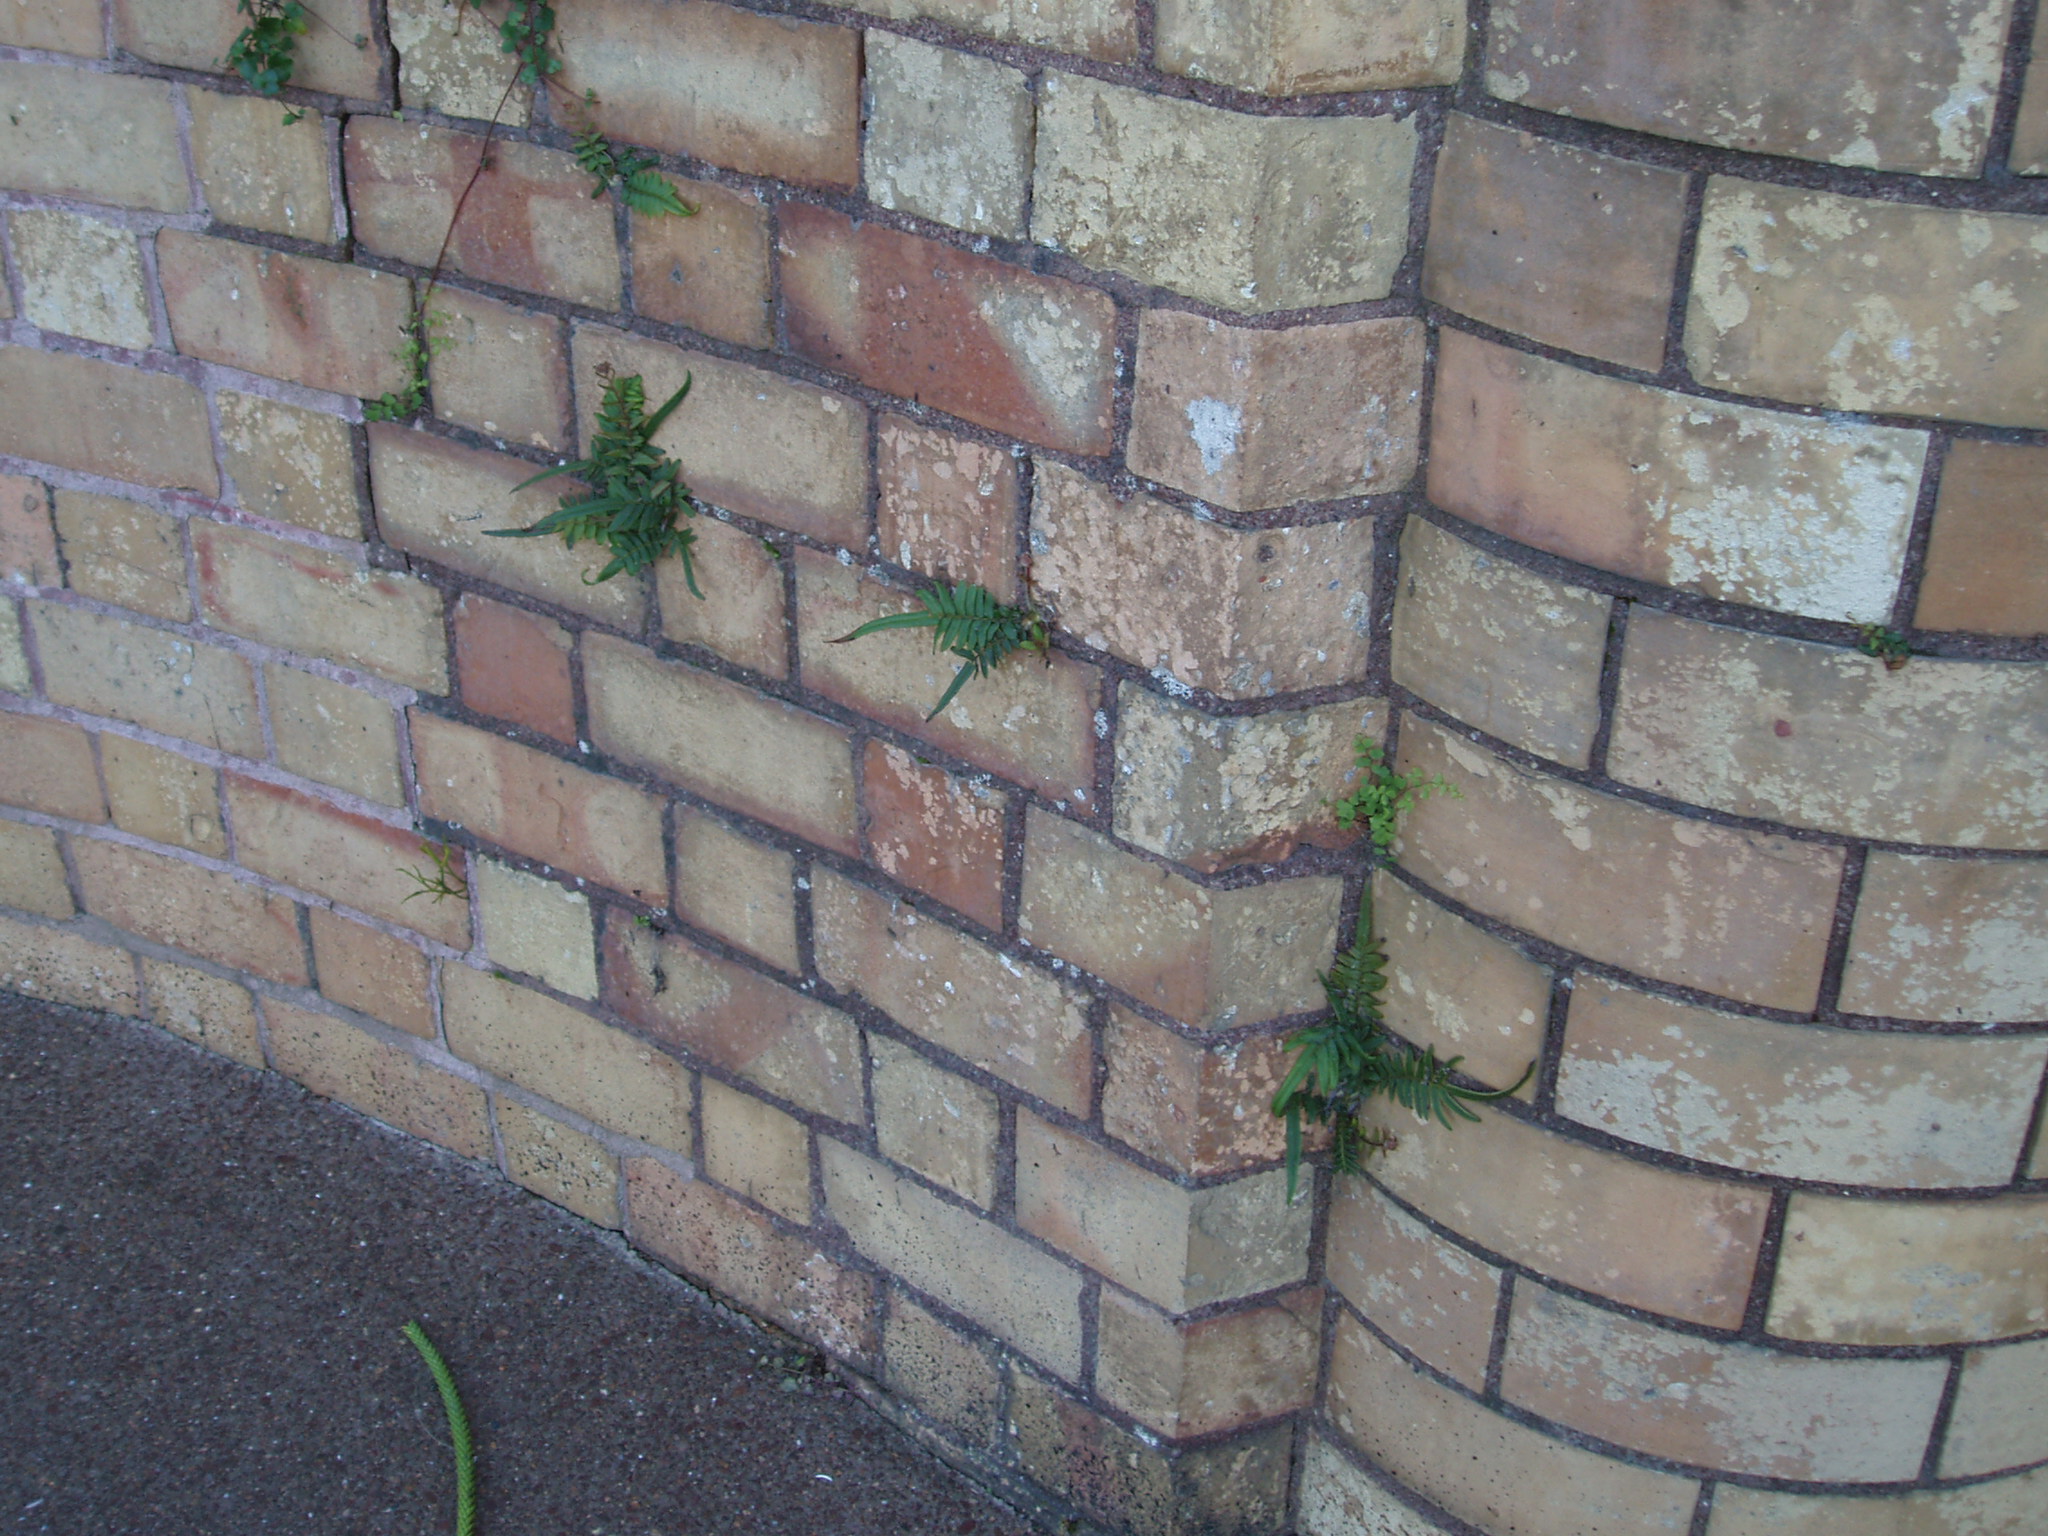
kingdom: Plantae
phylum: Tracheophyta
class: Polypodiopsida
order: Polypodiales
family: Pteridaceae
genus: Pteris
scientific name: Pteris vittata
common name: Ladder brake
